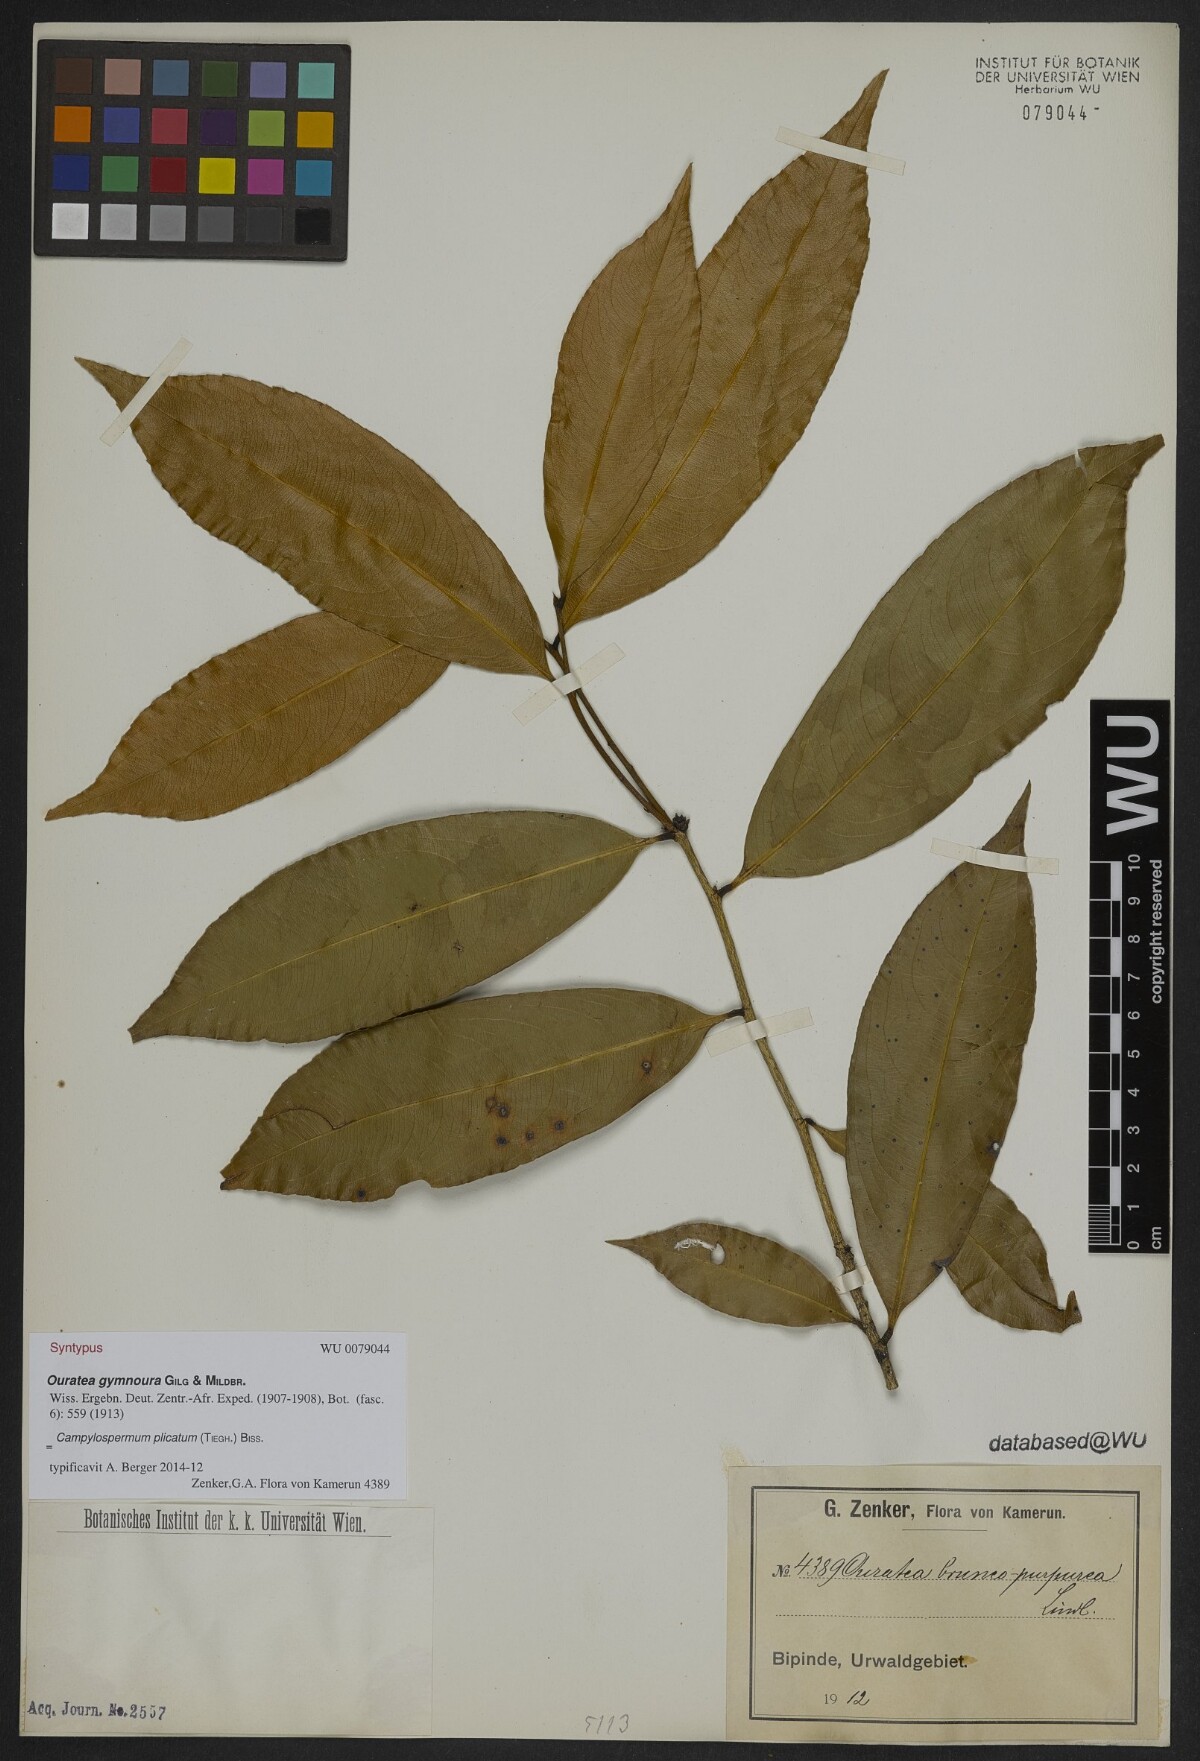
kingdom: Plantae
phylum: Tracheophyta
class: Magnoliopsida
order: Malpighiales
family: Ochnaceae
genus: Campylospermum
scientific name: Campylospermum strictum
